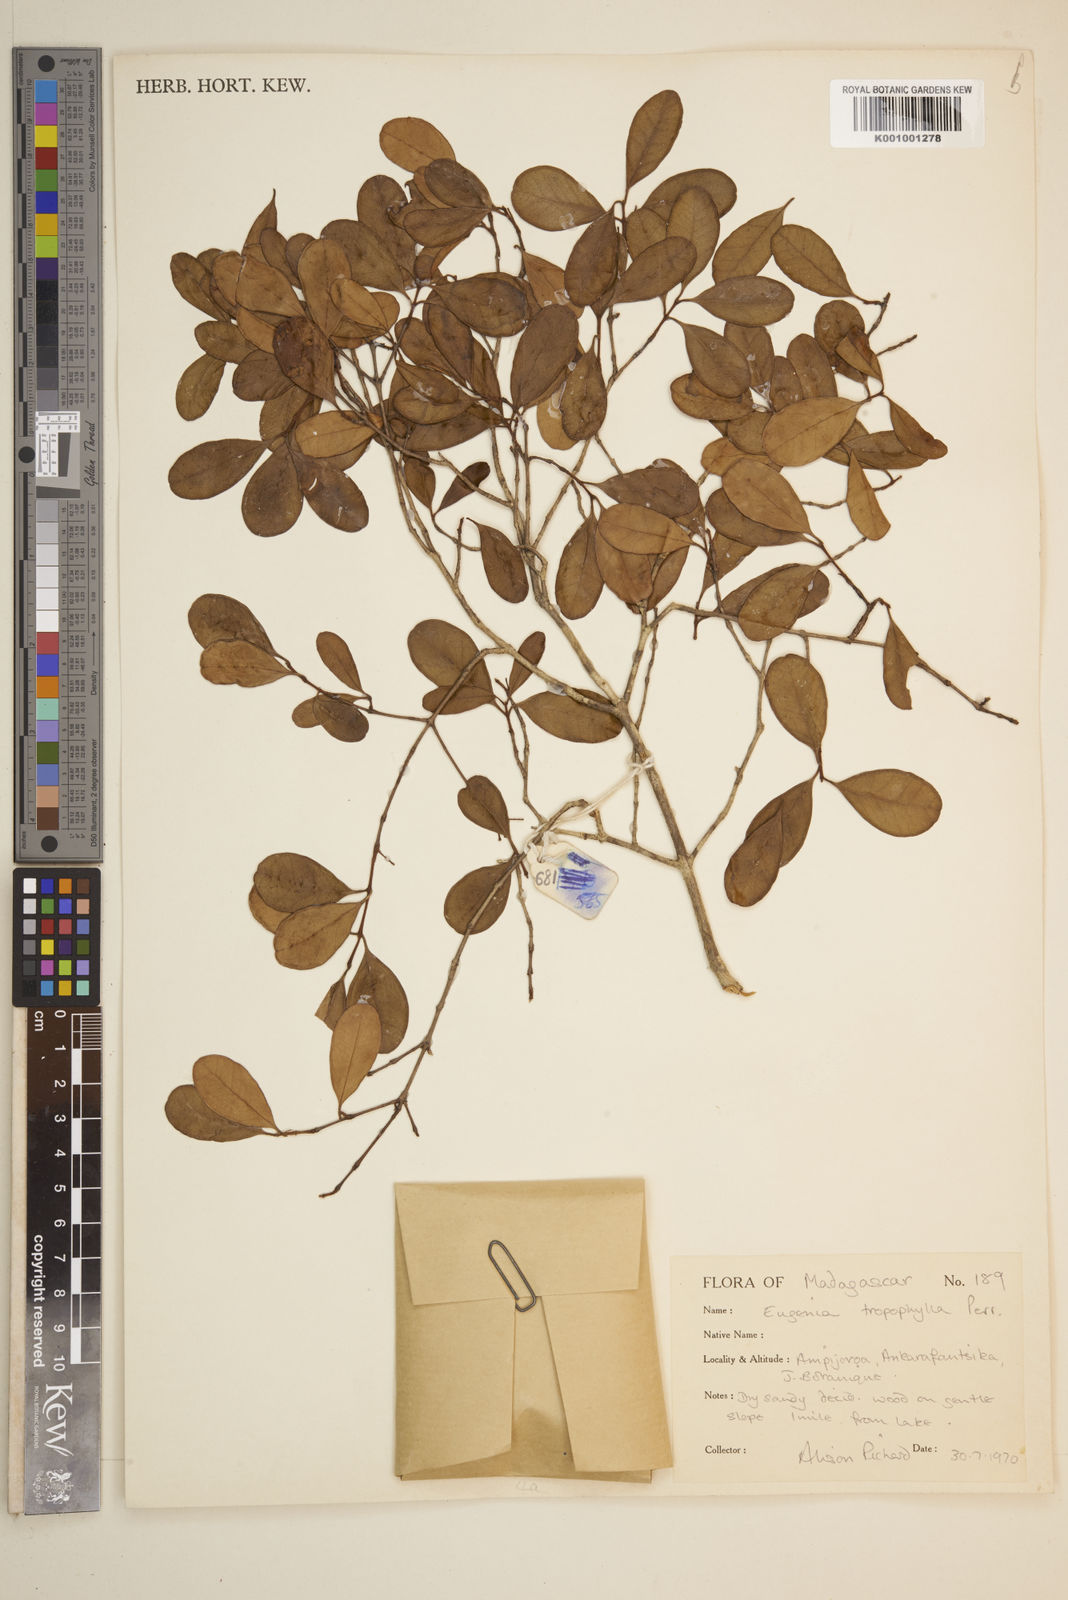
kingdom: Plantae
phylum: Tracheophyta
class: Magnoliopsida
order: Myrtales
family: Myrtaceae
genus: Eugenia
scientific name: Eugenia tropophylla
